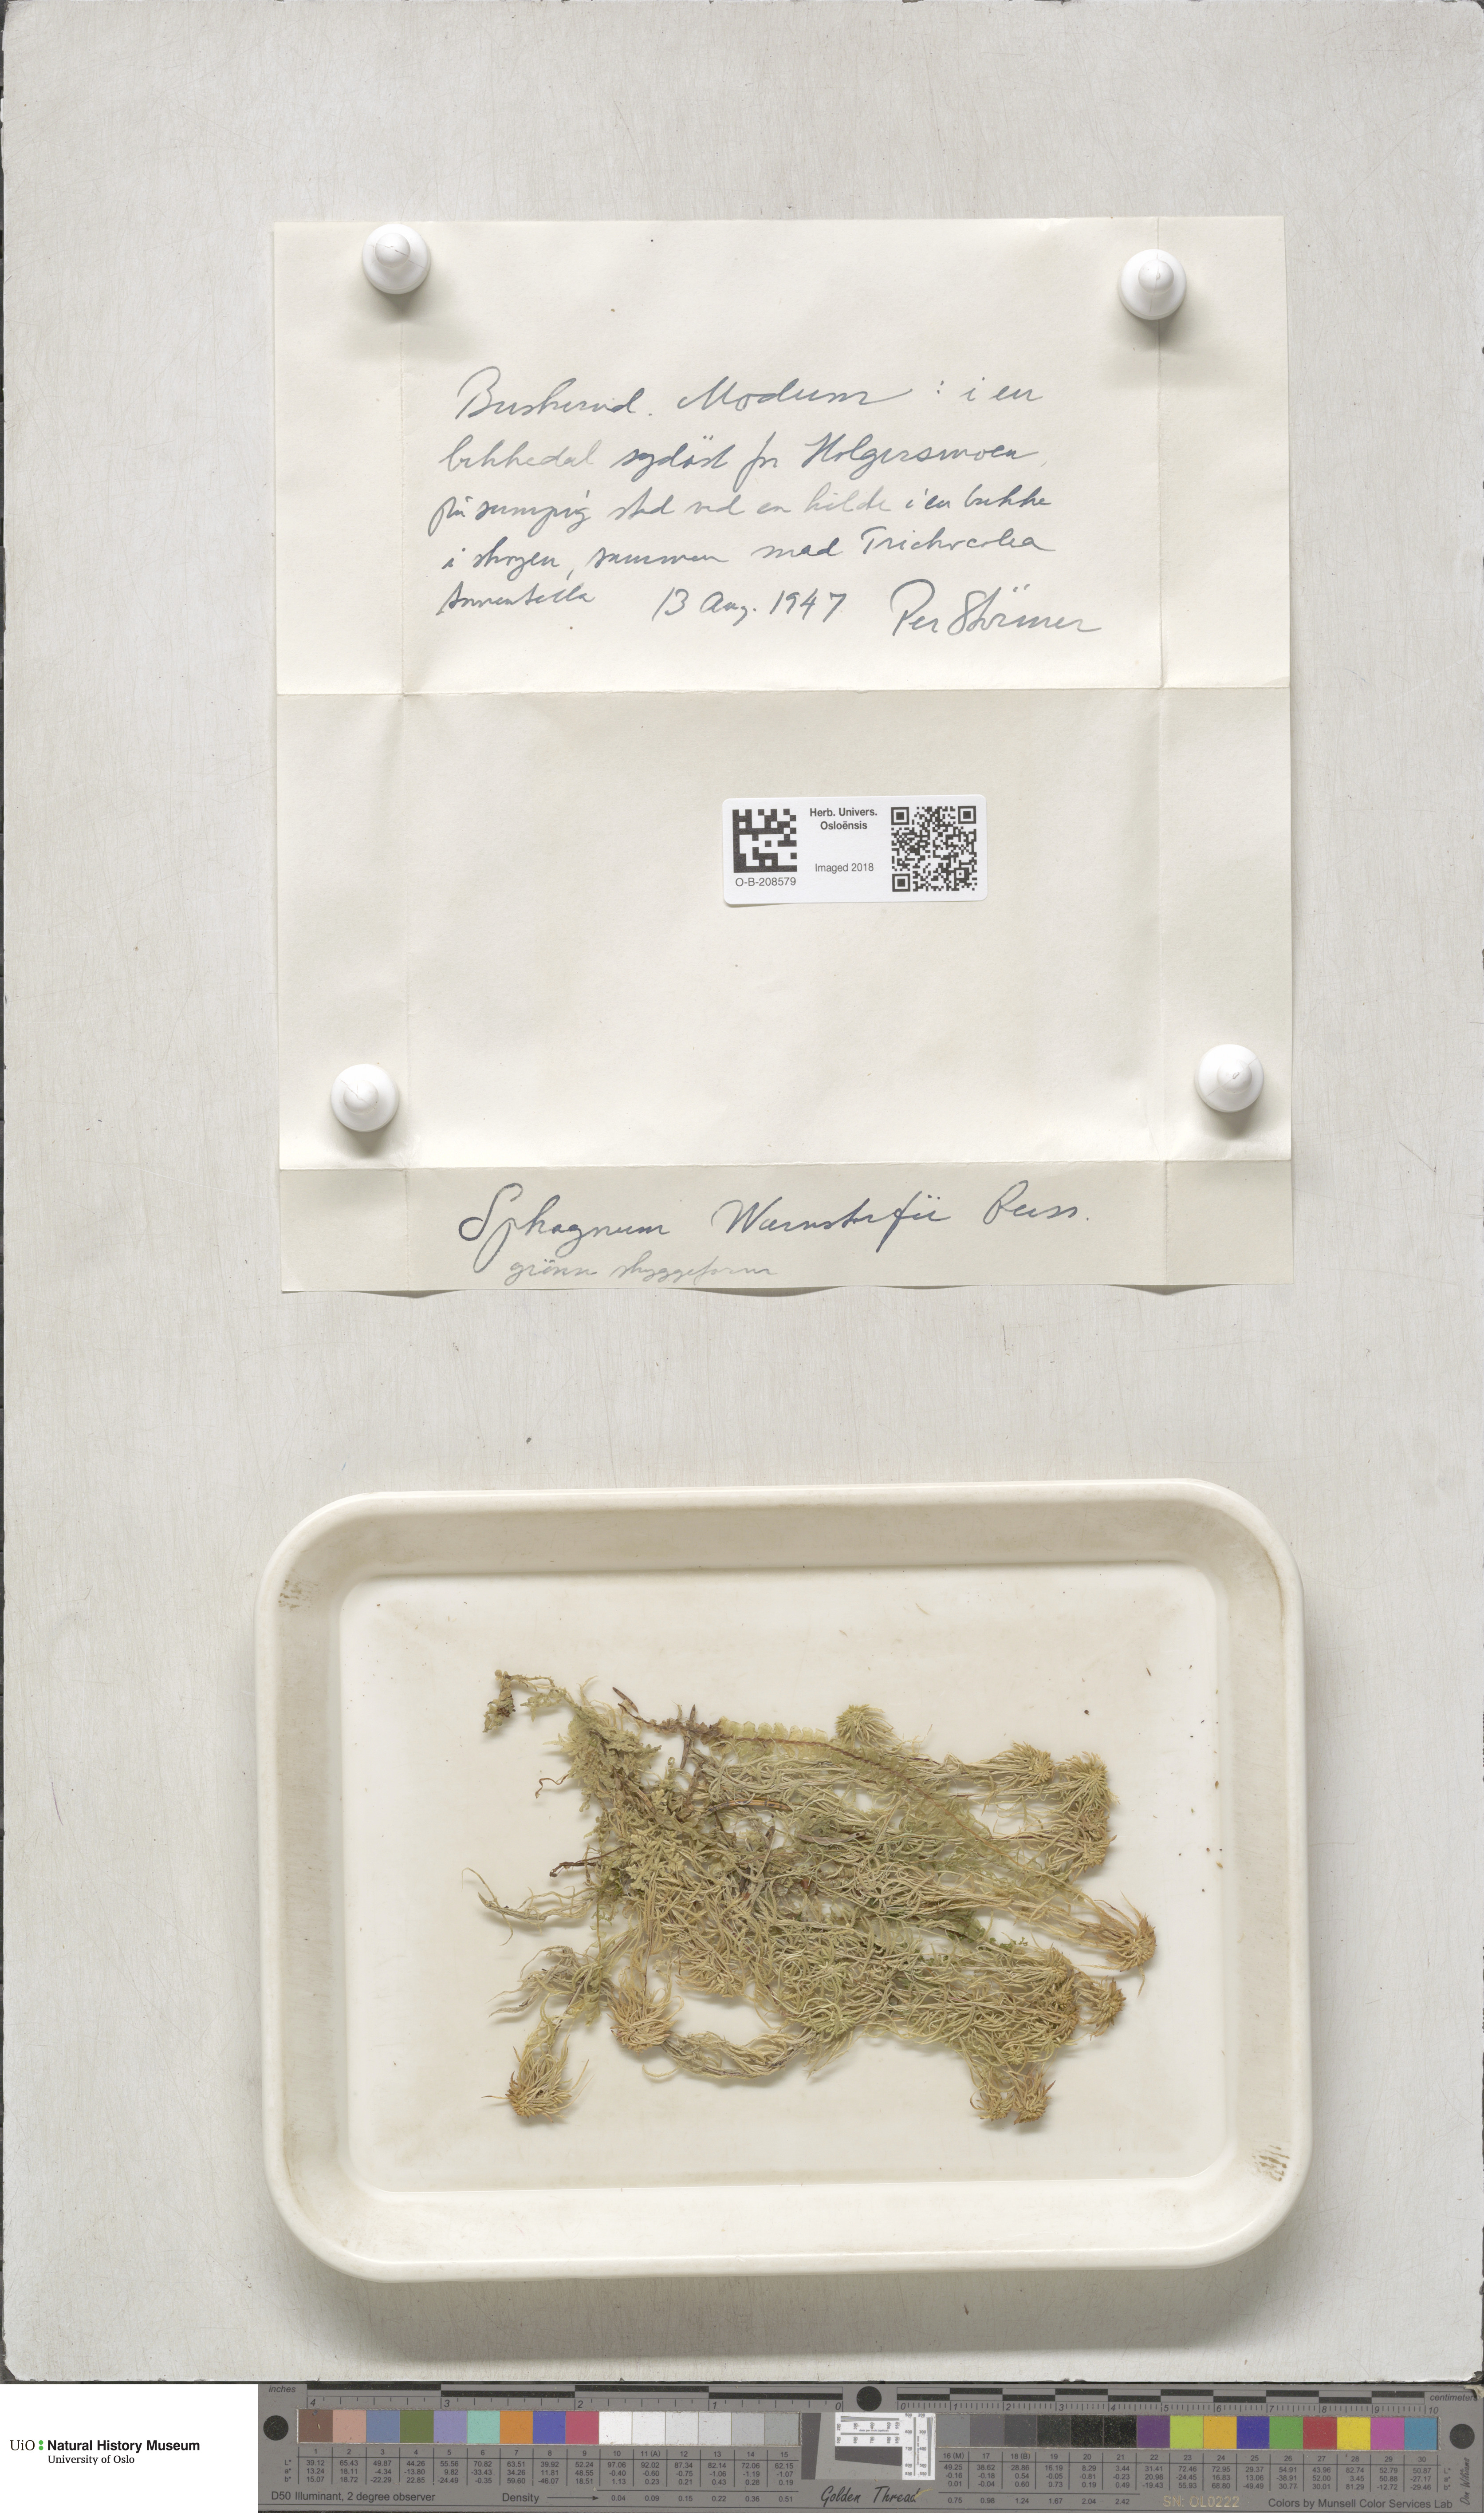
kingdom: Plantae
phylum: Bryophyta
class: Sphagnopsida
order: Sphagnales
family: Sphagnaceae
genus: Sphagnum
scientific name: Sphagnum warnstorfii
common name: Warnstorf's peat moss
